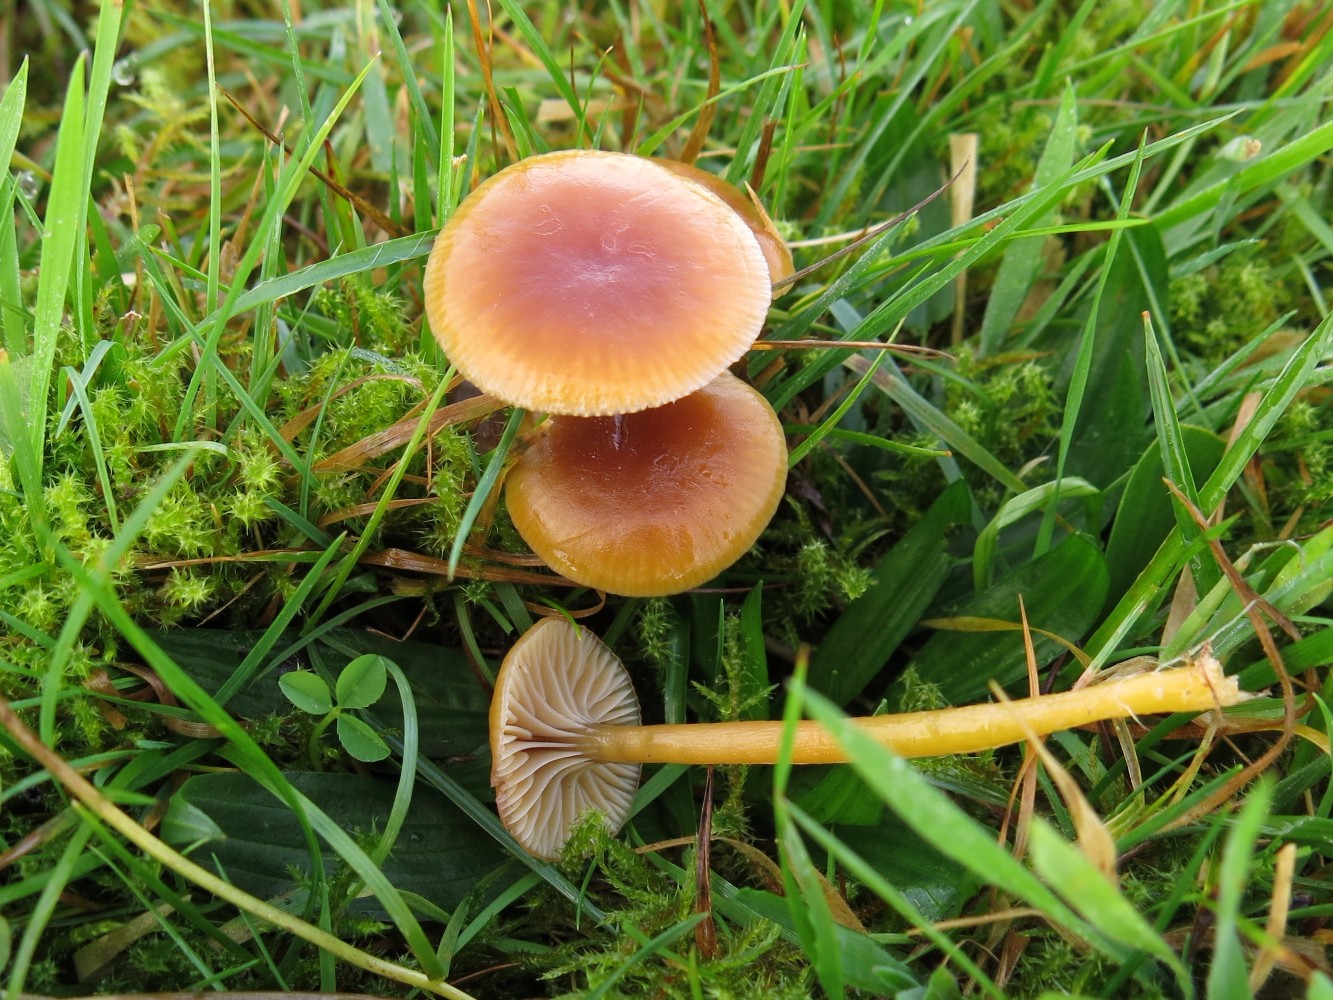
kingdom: Fungi
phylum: Basidiomycota
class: Agaricomycetes
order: Agaricales
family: Hygrophoraceae
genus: Gliophorus
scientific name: Gliophorus laetus
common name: brusk-vokshat
